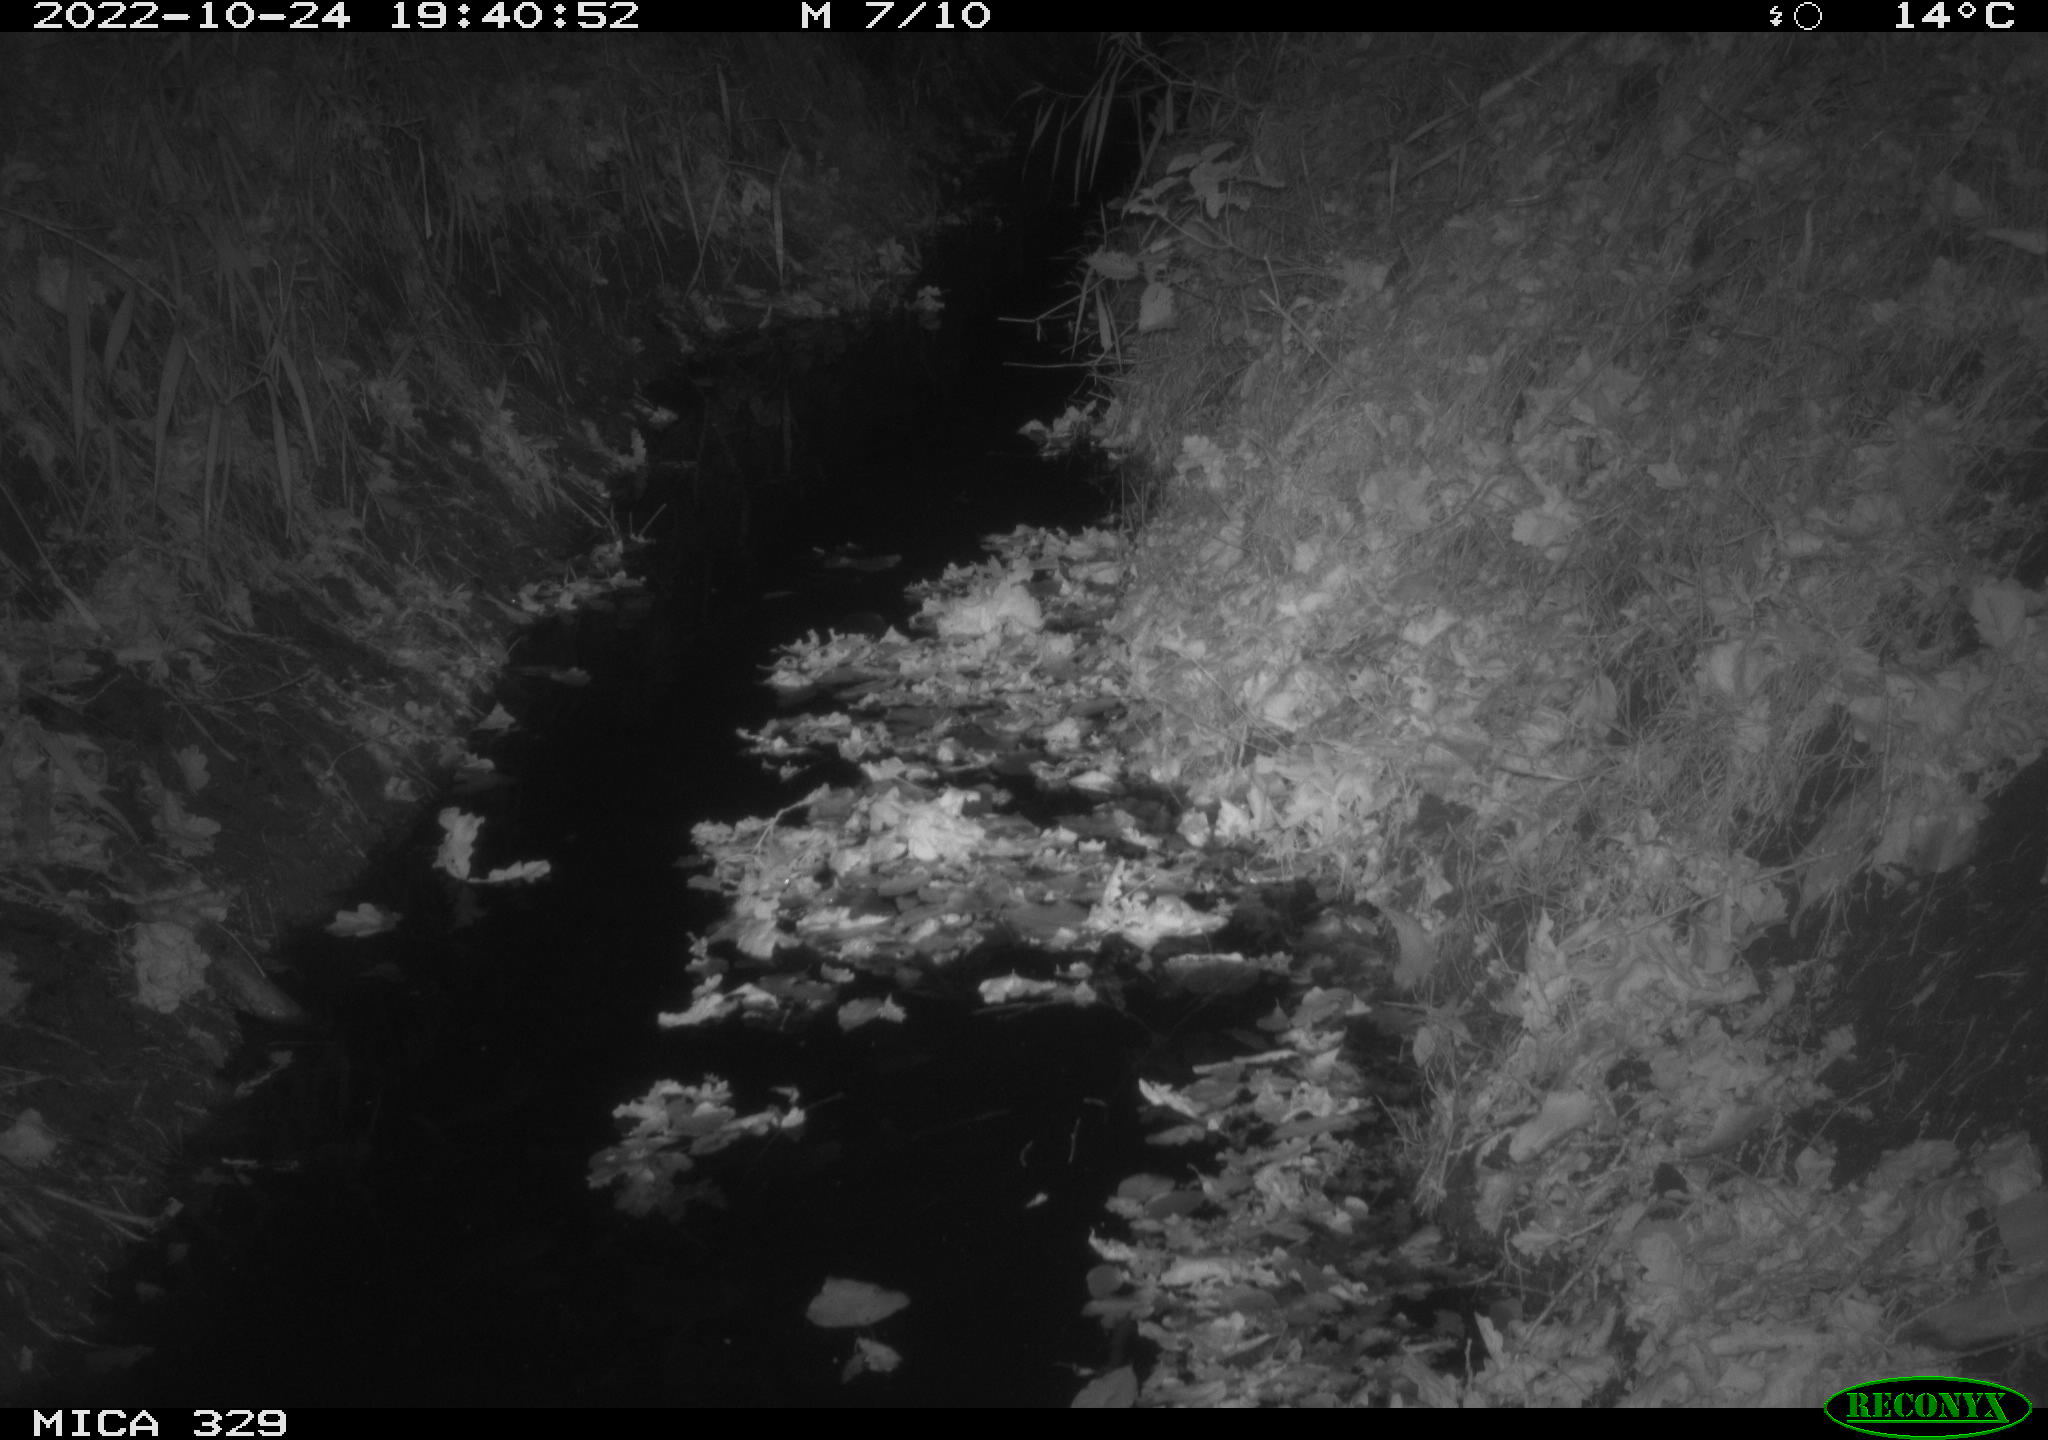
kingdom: Animalia
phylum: Chordata
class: Mammalia
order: Rodentia
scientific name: Rodentia
